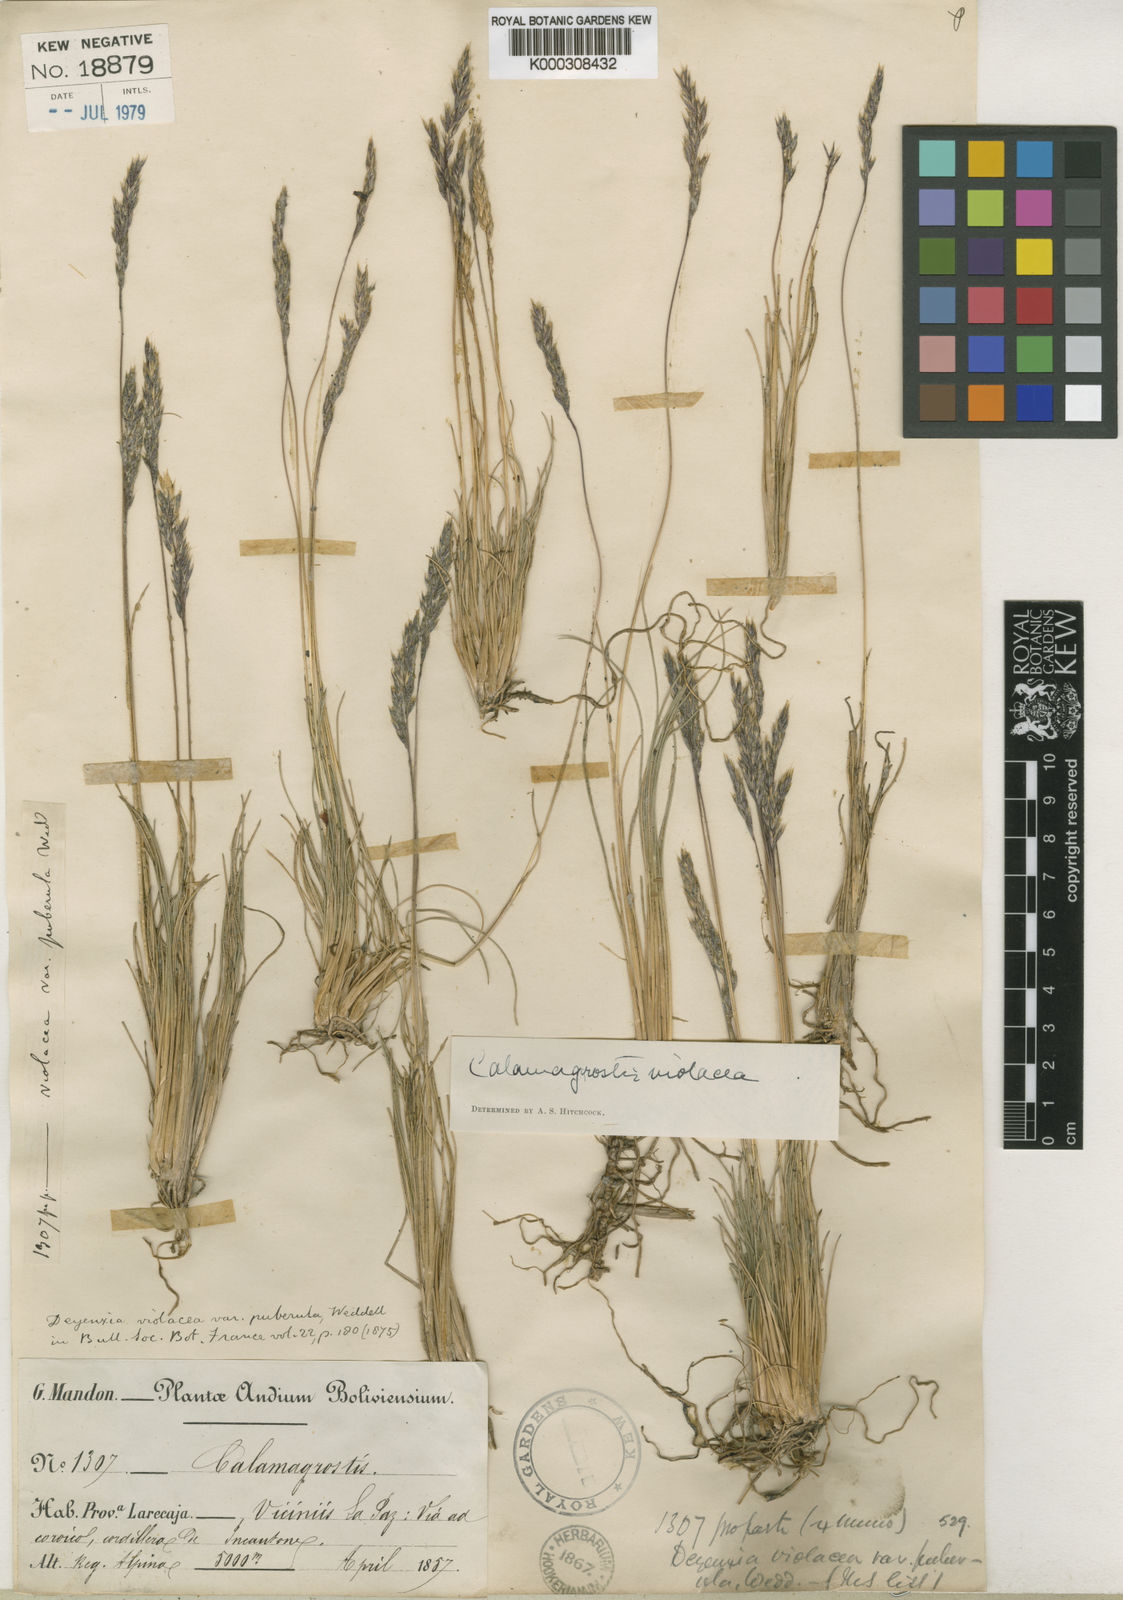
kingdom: Plantae
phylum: Tracheophyta
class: Liliopsida
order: Poales
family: Poaceae
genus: Cinnagrostis
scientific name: Cinnagrostis violacea
